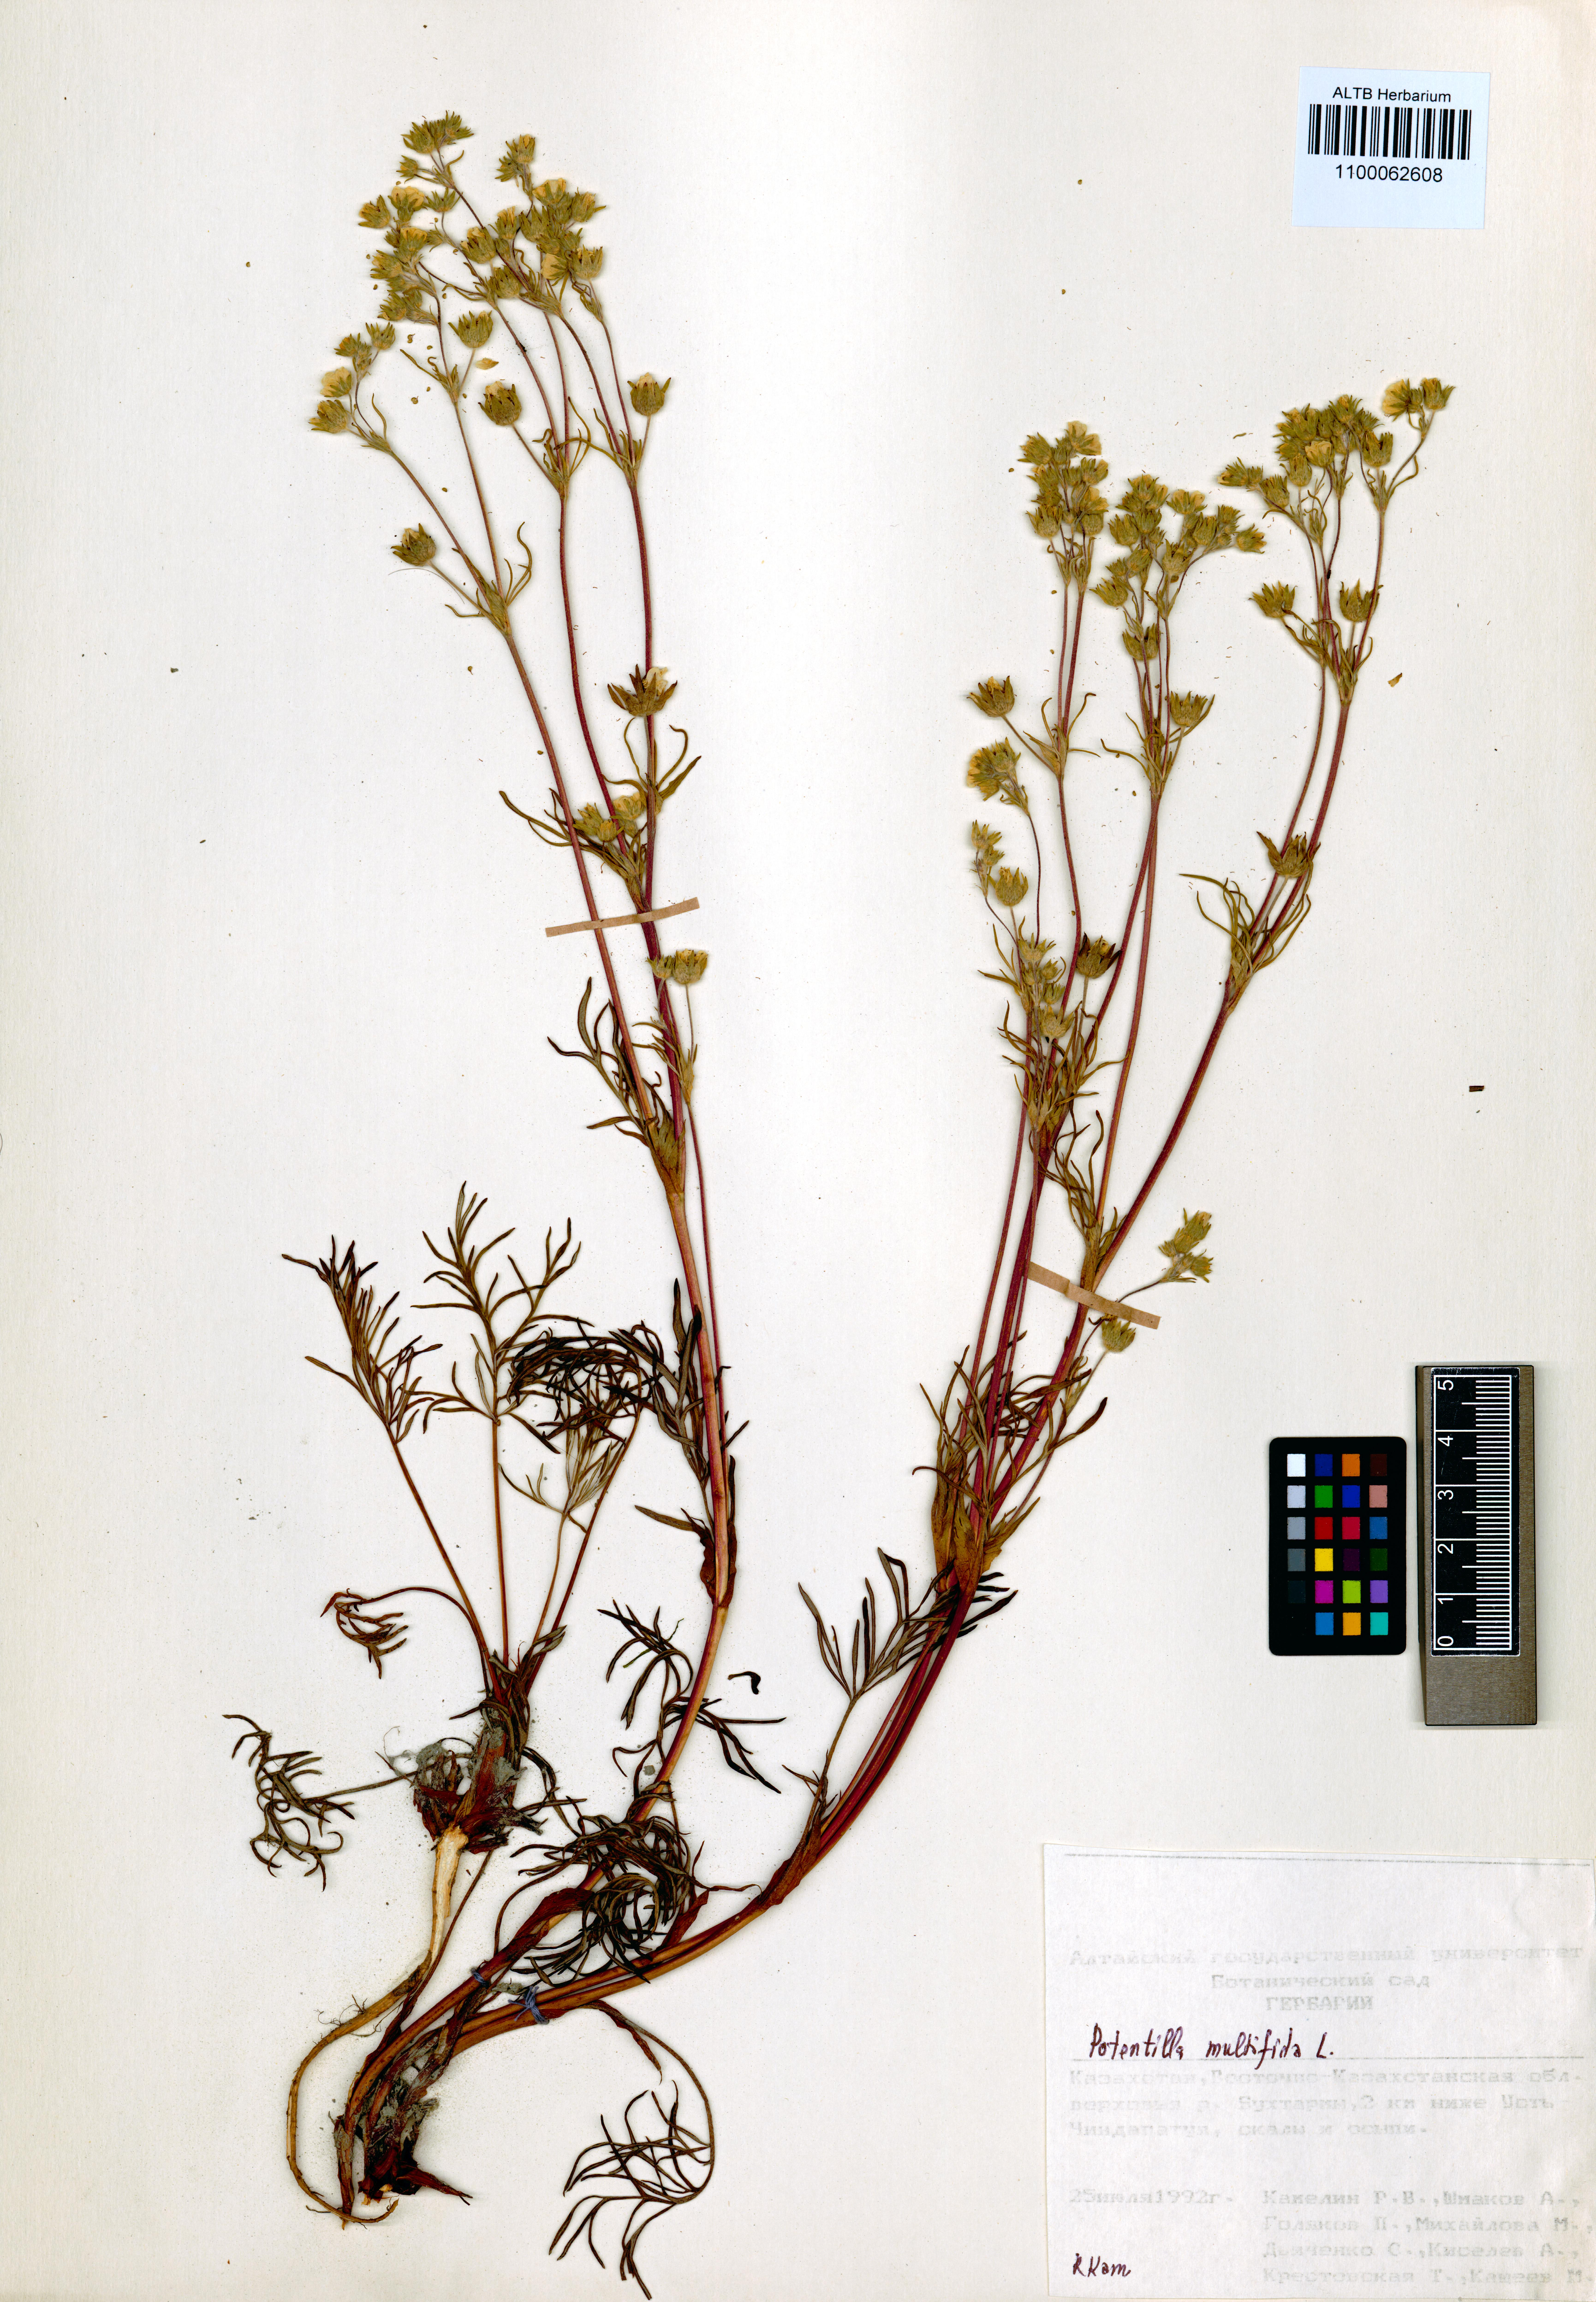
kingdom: Plantae
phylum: Tracheophyta
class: Magnoliopsida
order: Rosales
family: Rosaceae
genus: Potentilla
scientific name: Potentilla multifida
